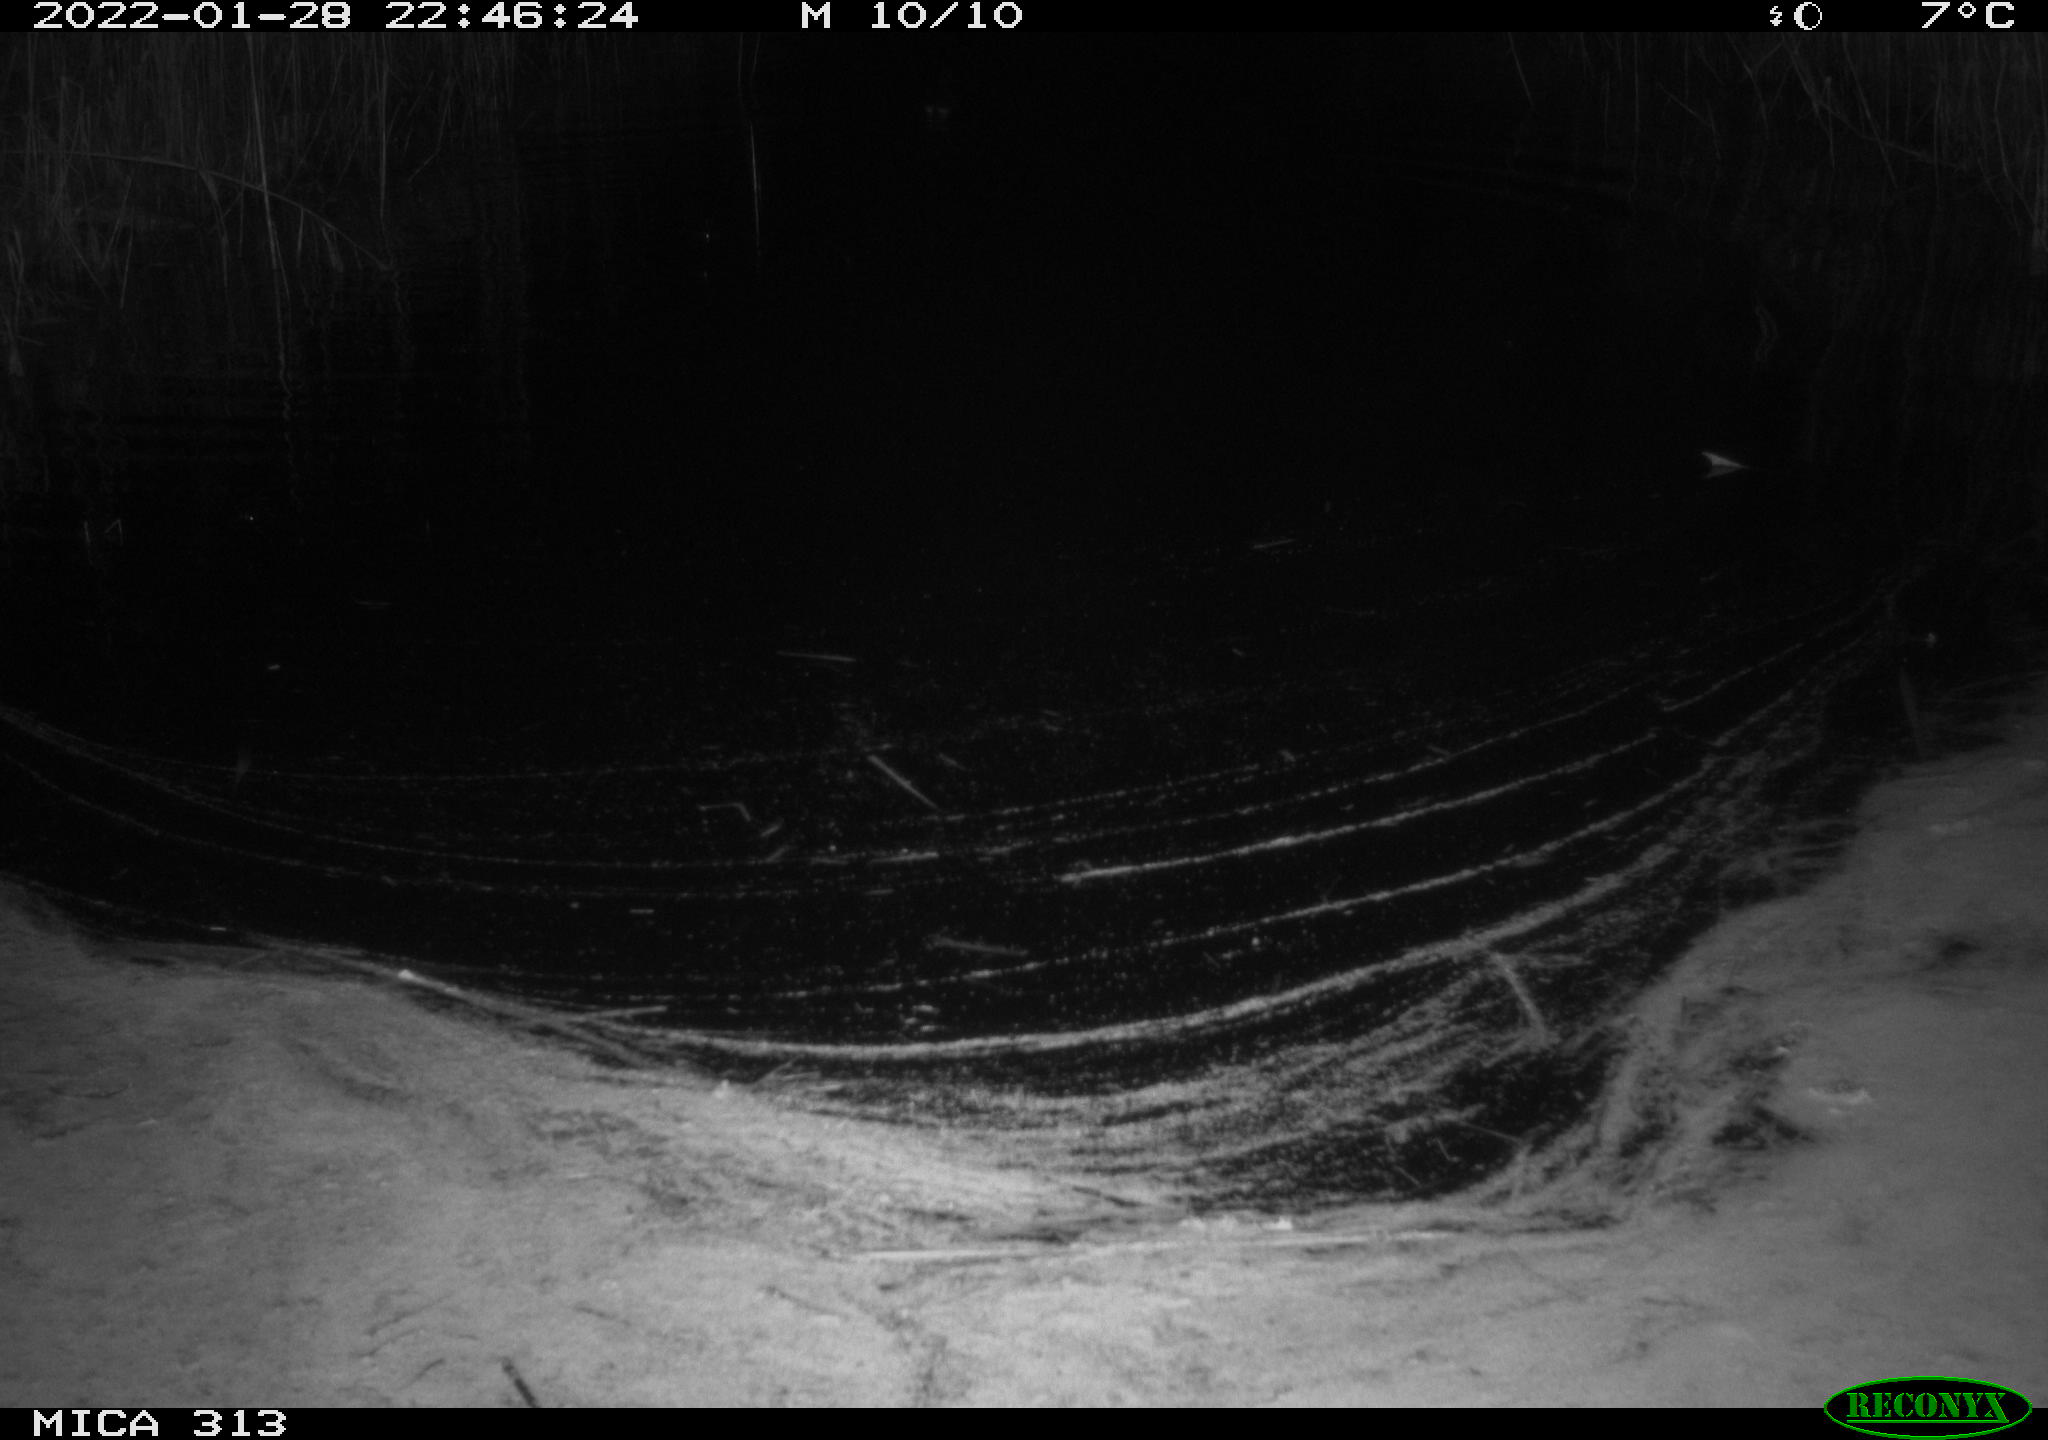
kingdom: Animalia
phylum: Chordata
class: Aves
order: Gruiformes
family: Rallidae
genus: Gallinula
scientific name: Gallinula chloropus
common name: Common moorhen
